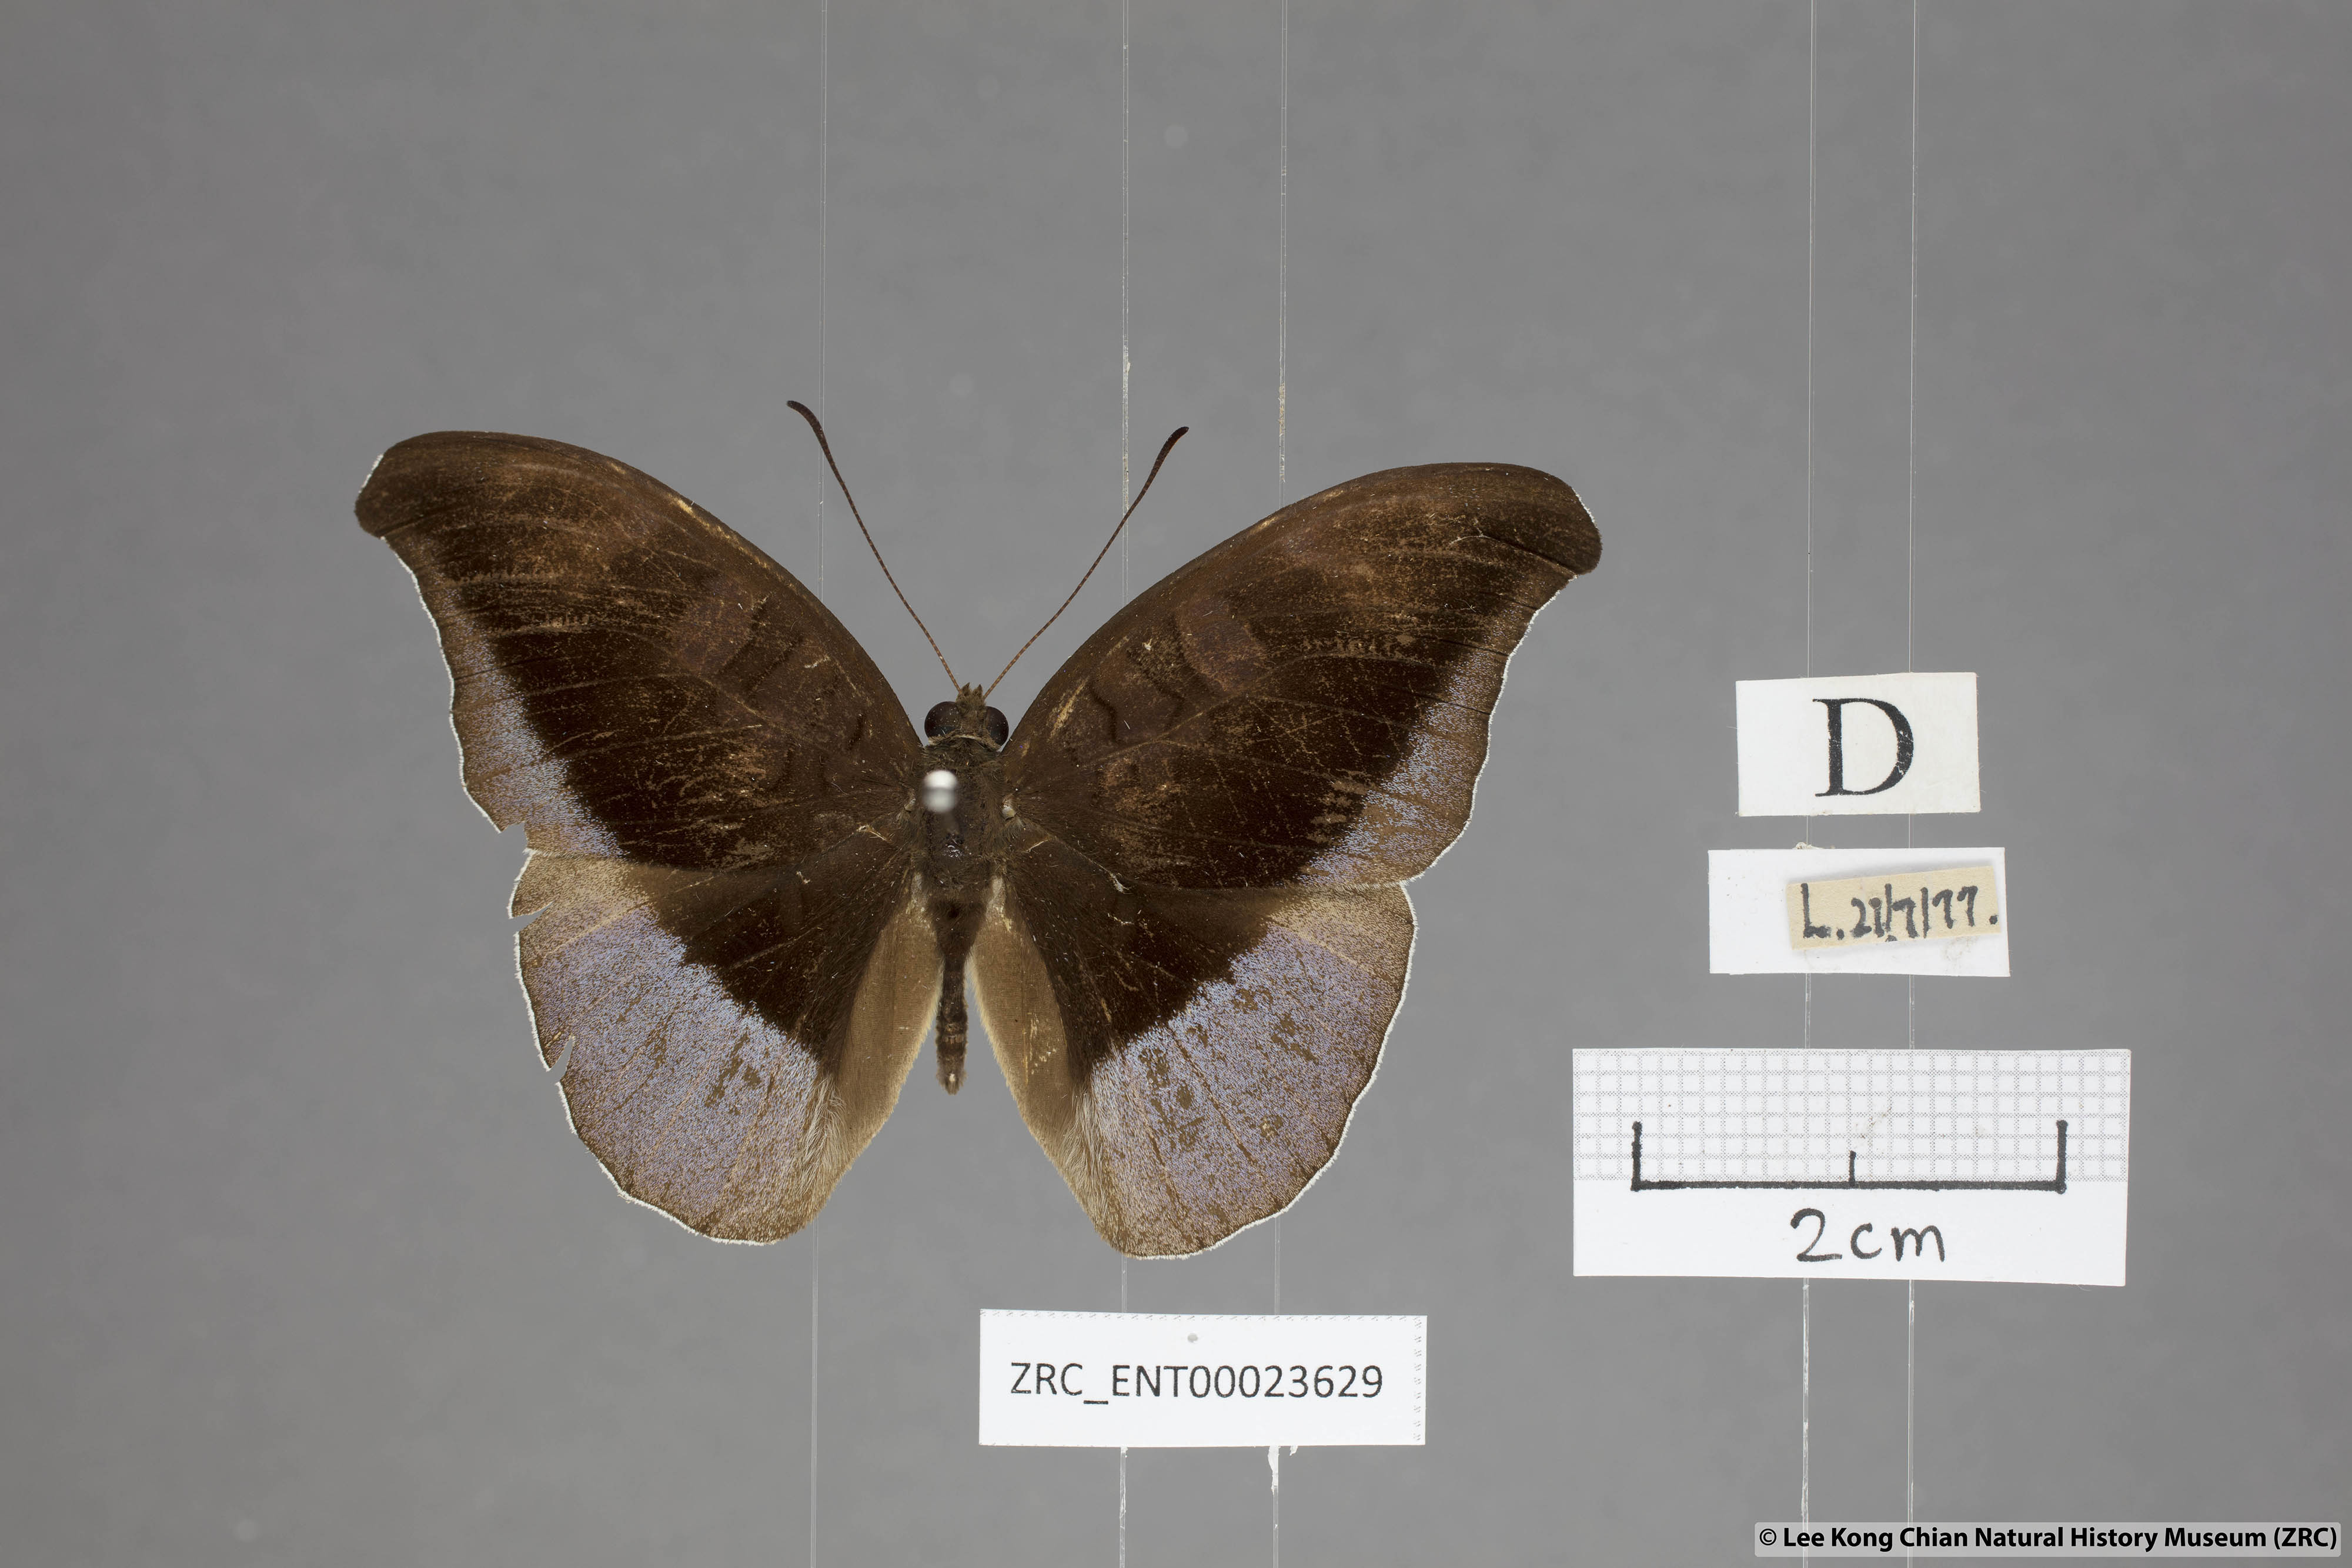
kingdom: Animalia
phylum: Arthropoda
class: Insecta
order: Lepidoptera
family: Nymphalidae
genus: Tanaecia
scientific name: Tanaecia cocytus
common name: Lavender count
